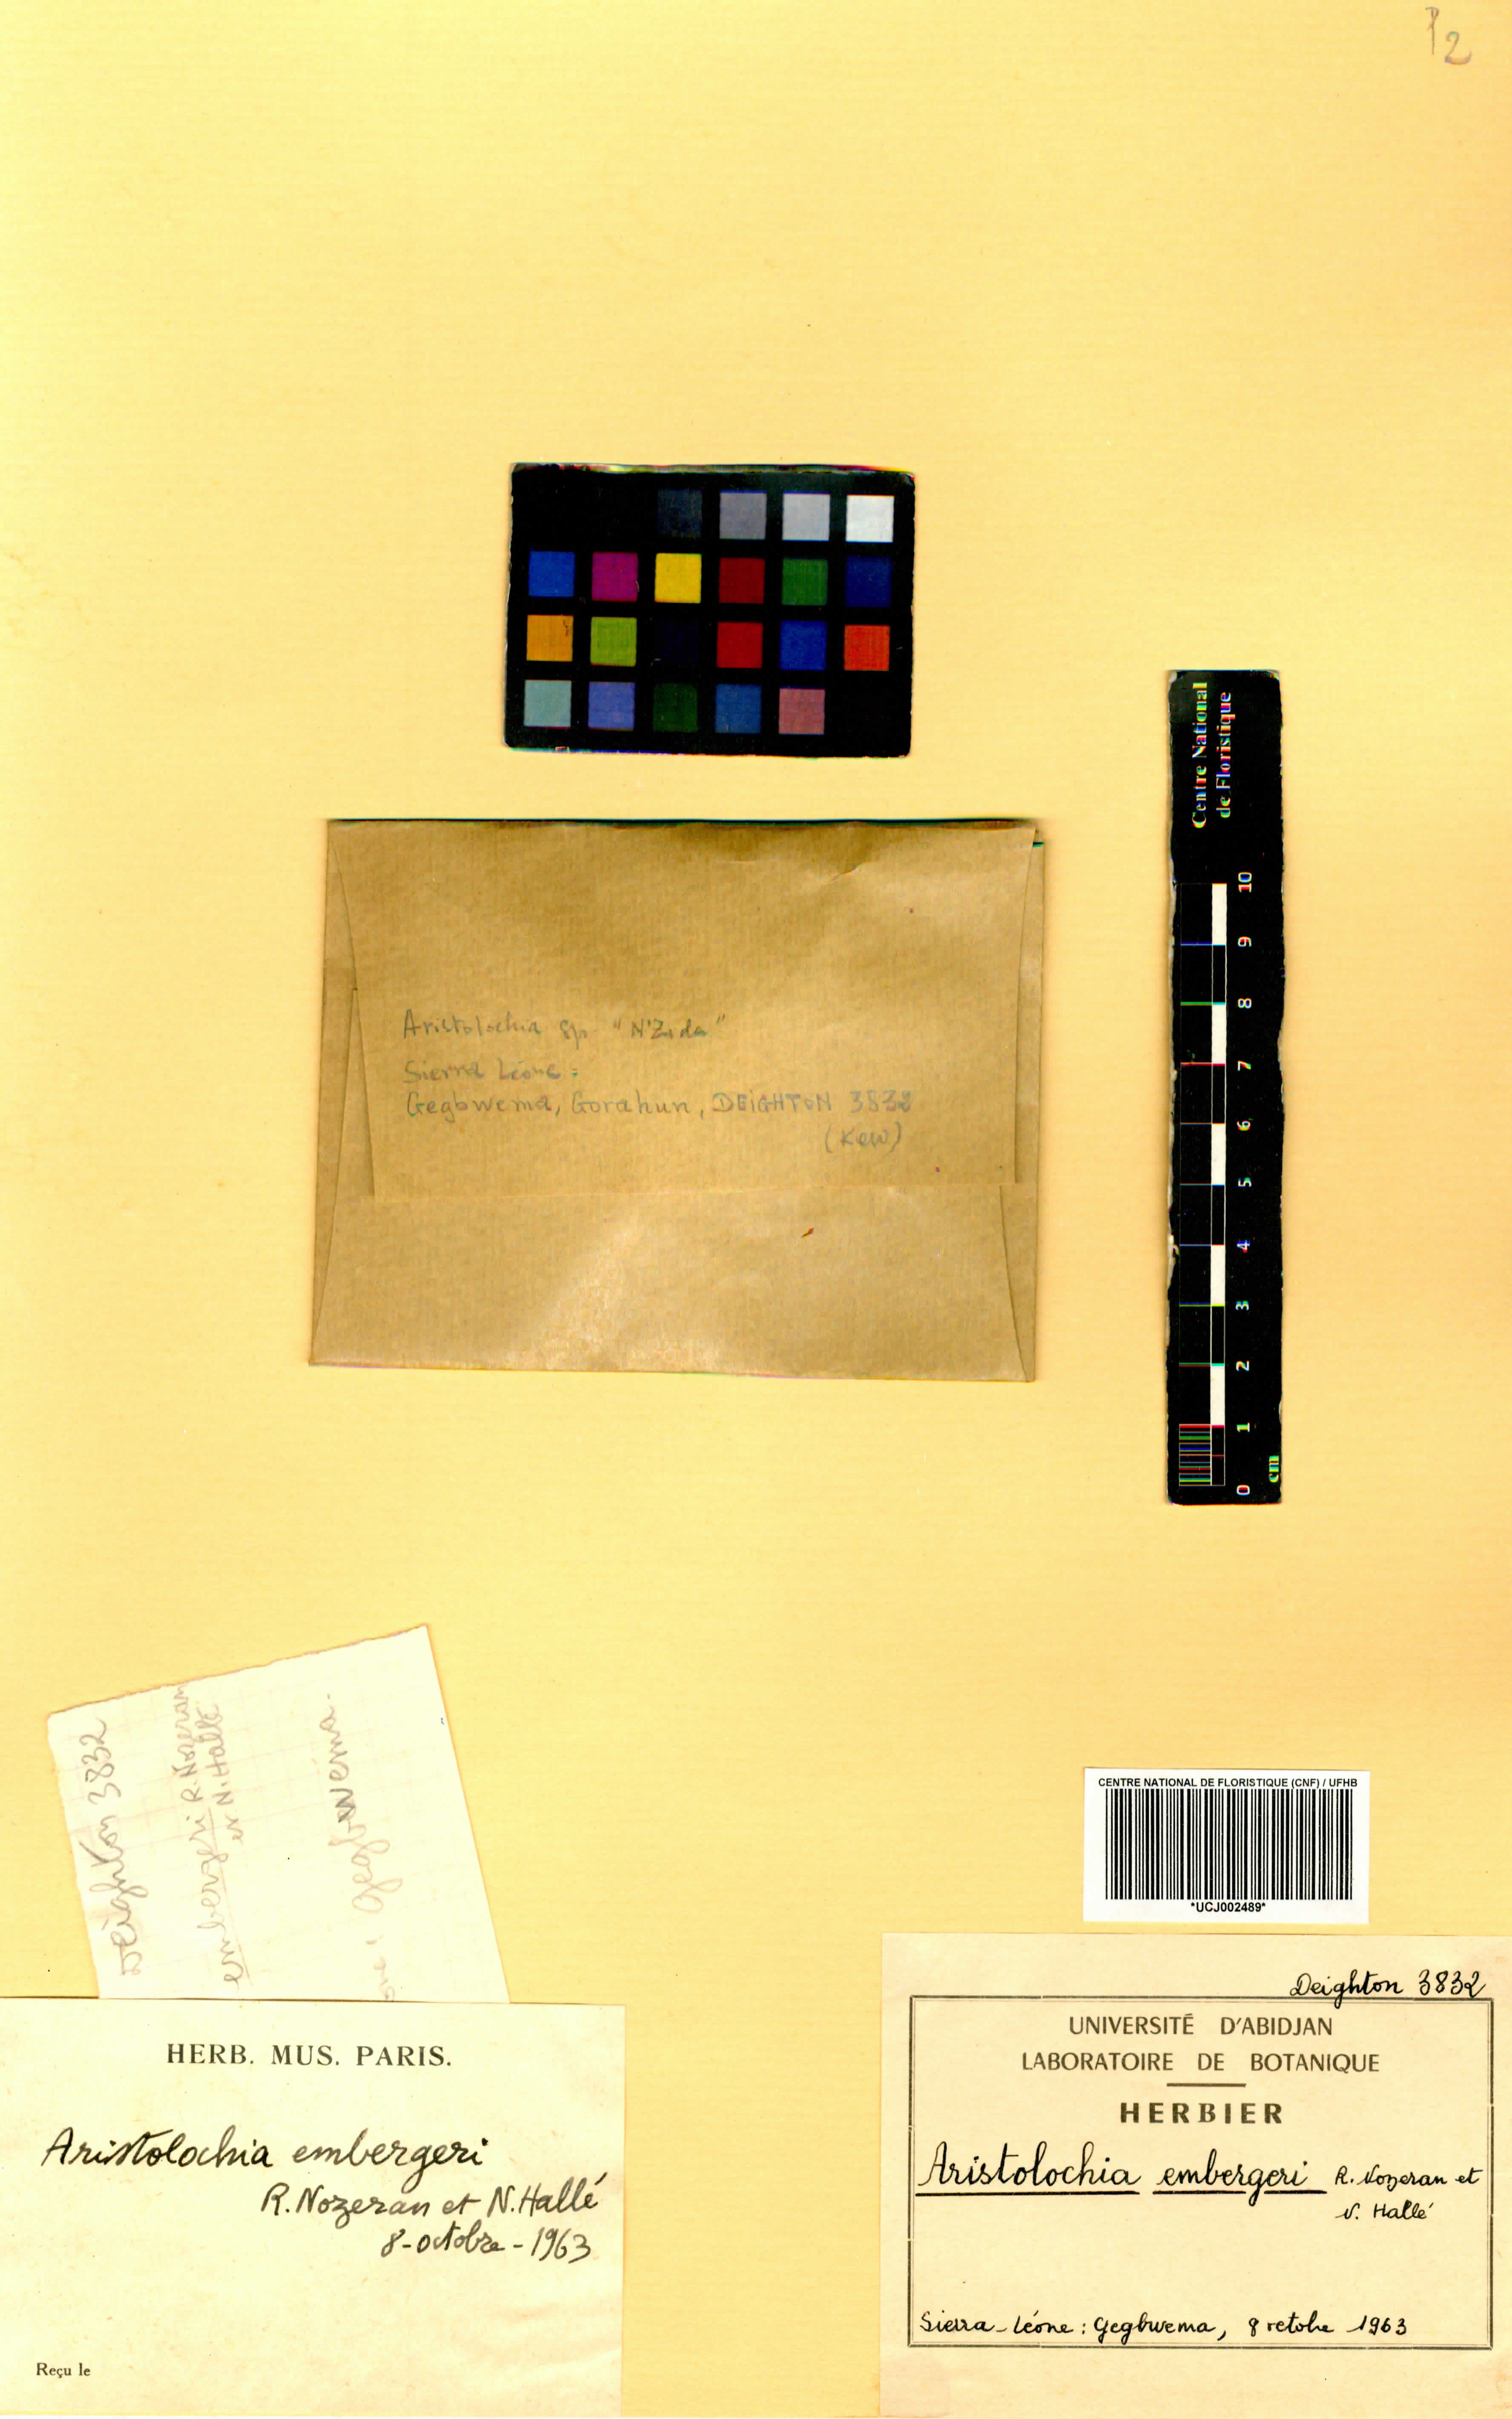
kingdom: Plantae
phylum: Tracheophyta
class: Magnoliopsida
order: Piperales
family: Aristolochiaceae
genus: Aristolochia
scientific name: Aristolochia embergeri
